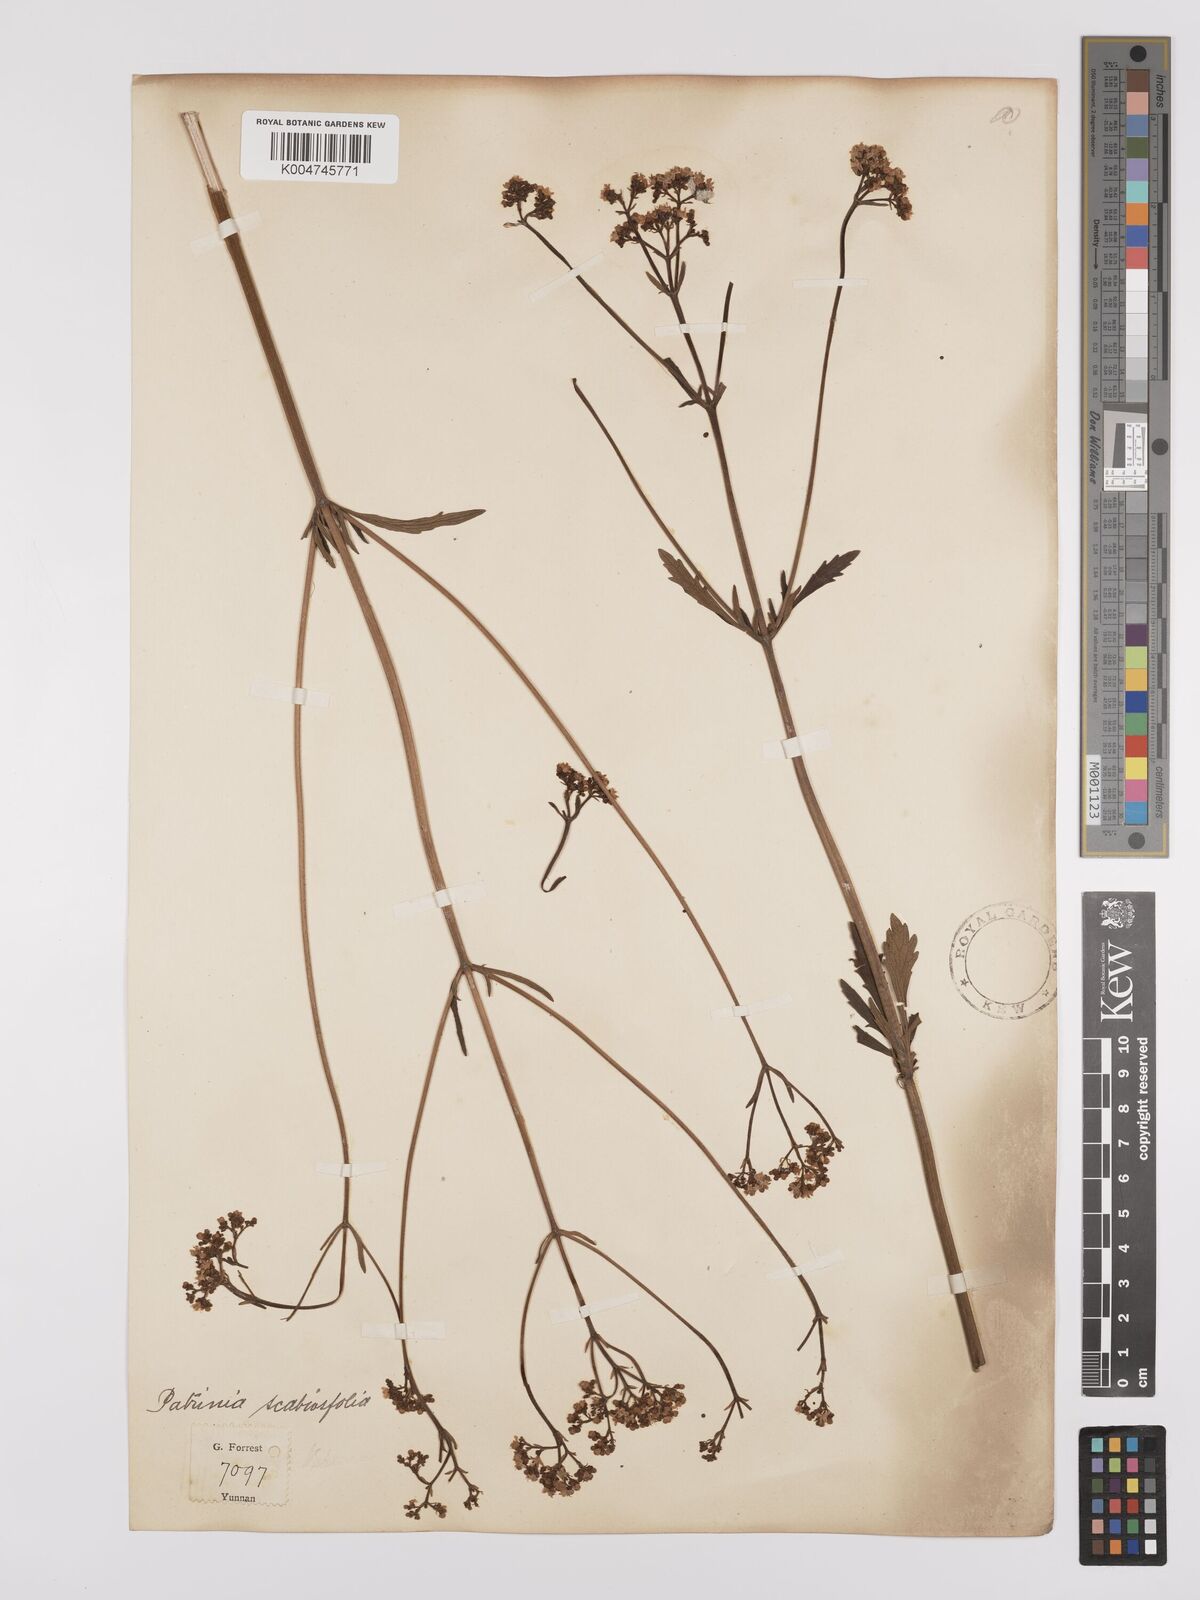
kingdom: Plantae
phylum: Tracheophyta
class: Magnoliopsida
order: Dipsacales
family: Caprifoliaceae
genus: Patrinia
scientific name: Patrinia
